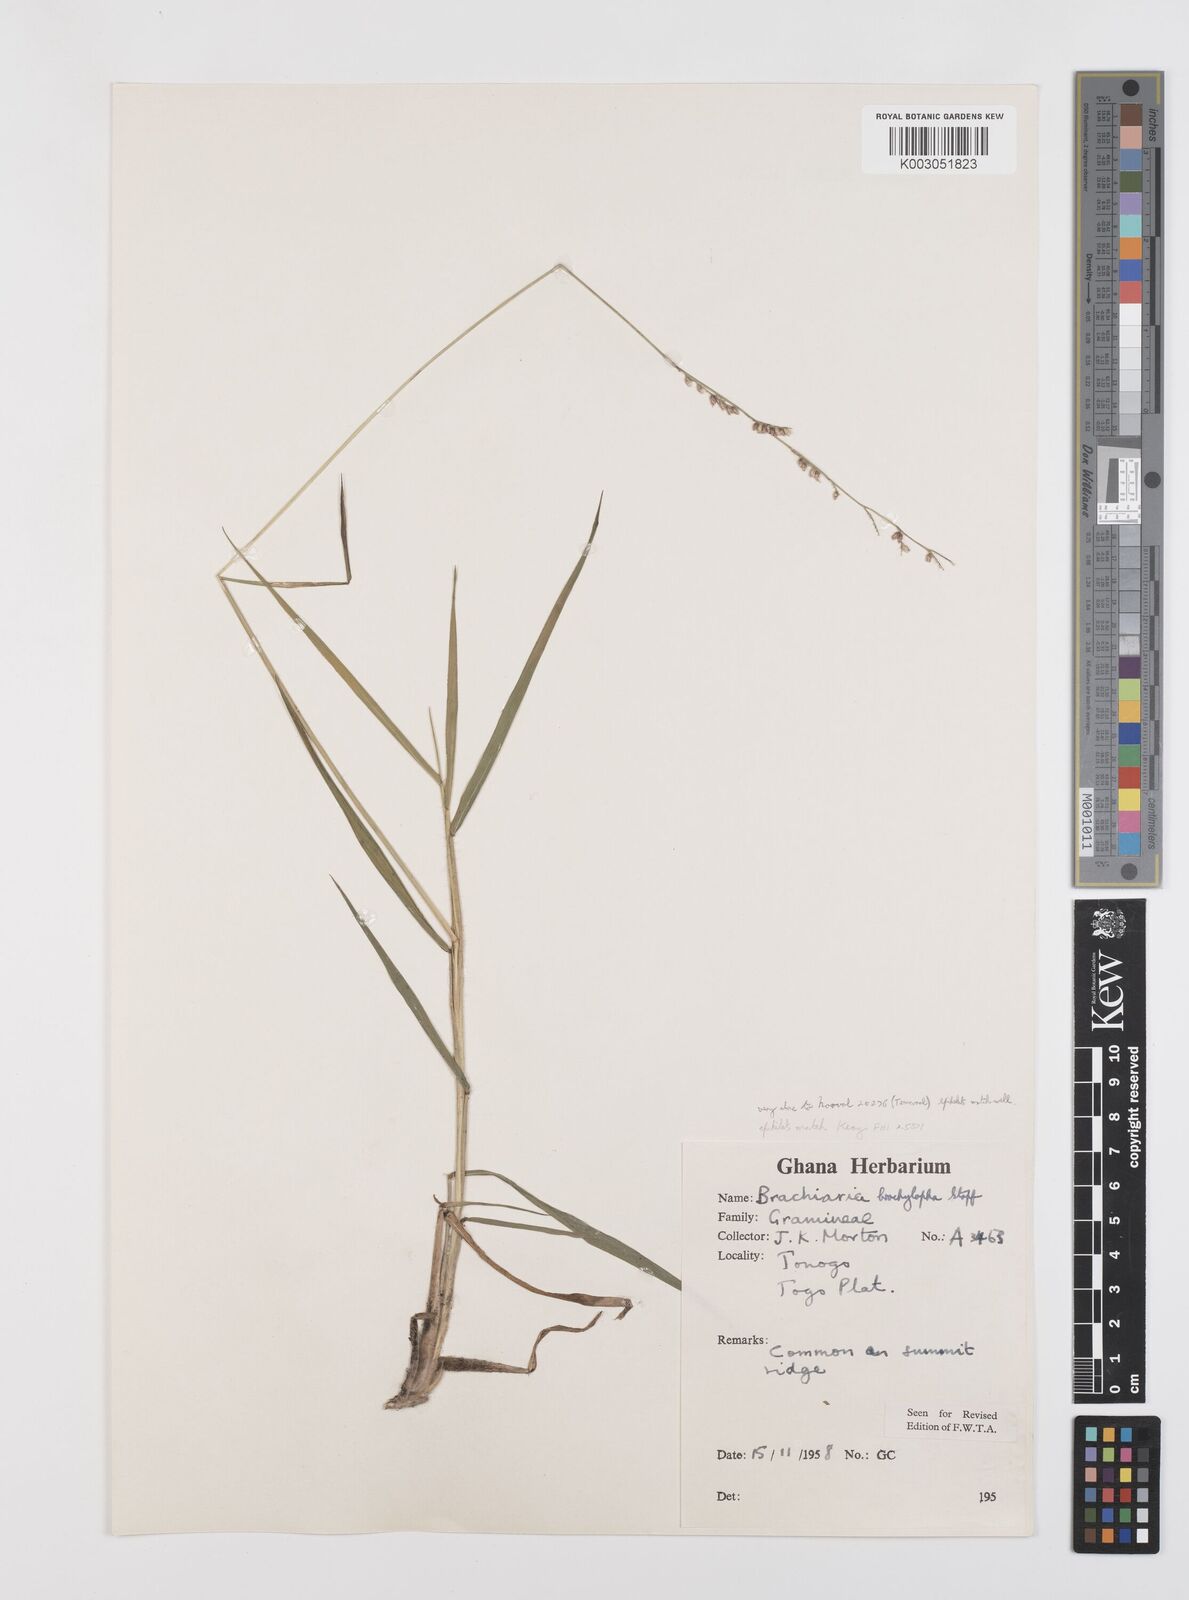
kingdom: Plantae
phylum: Tracheophyta
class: Liliopsida
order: Poales
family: Poaceae
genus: Urochloa
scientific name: Urochloa serrata
